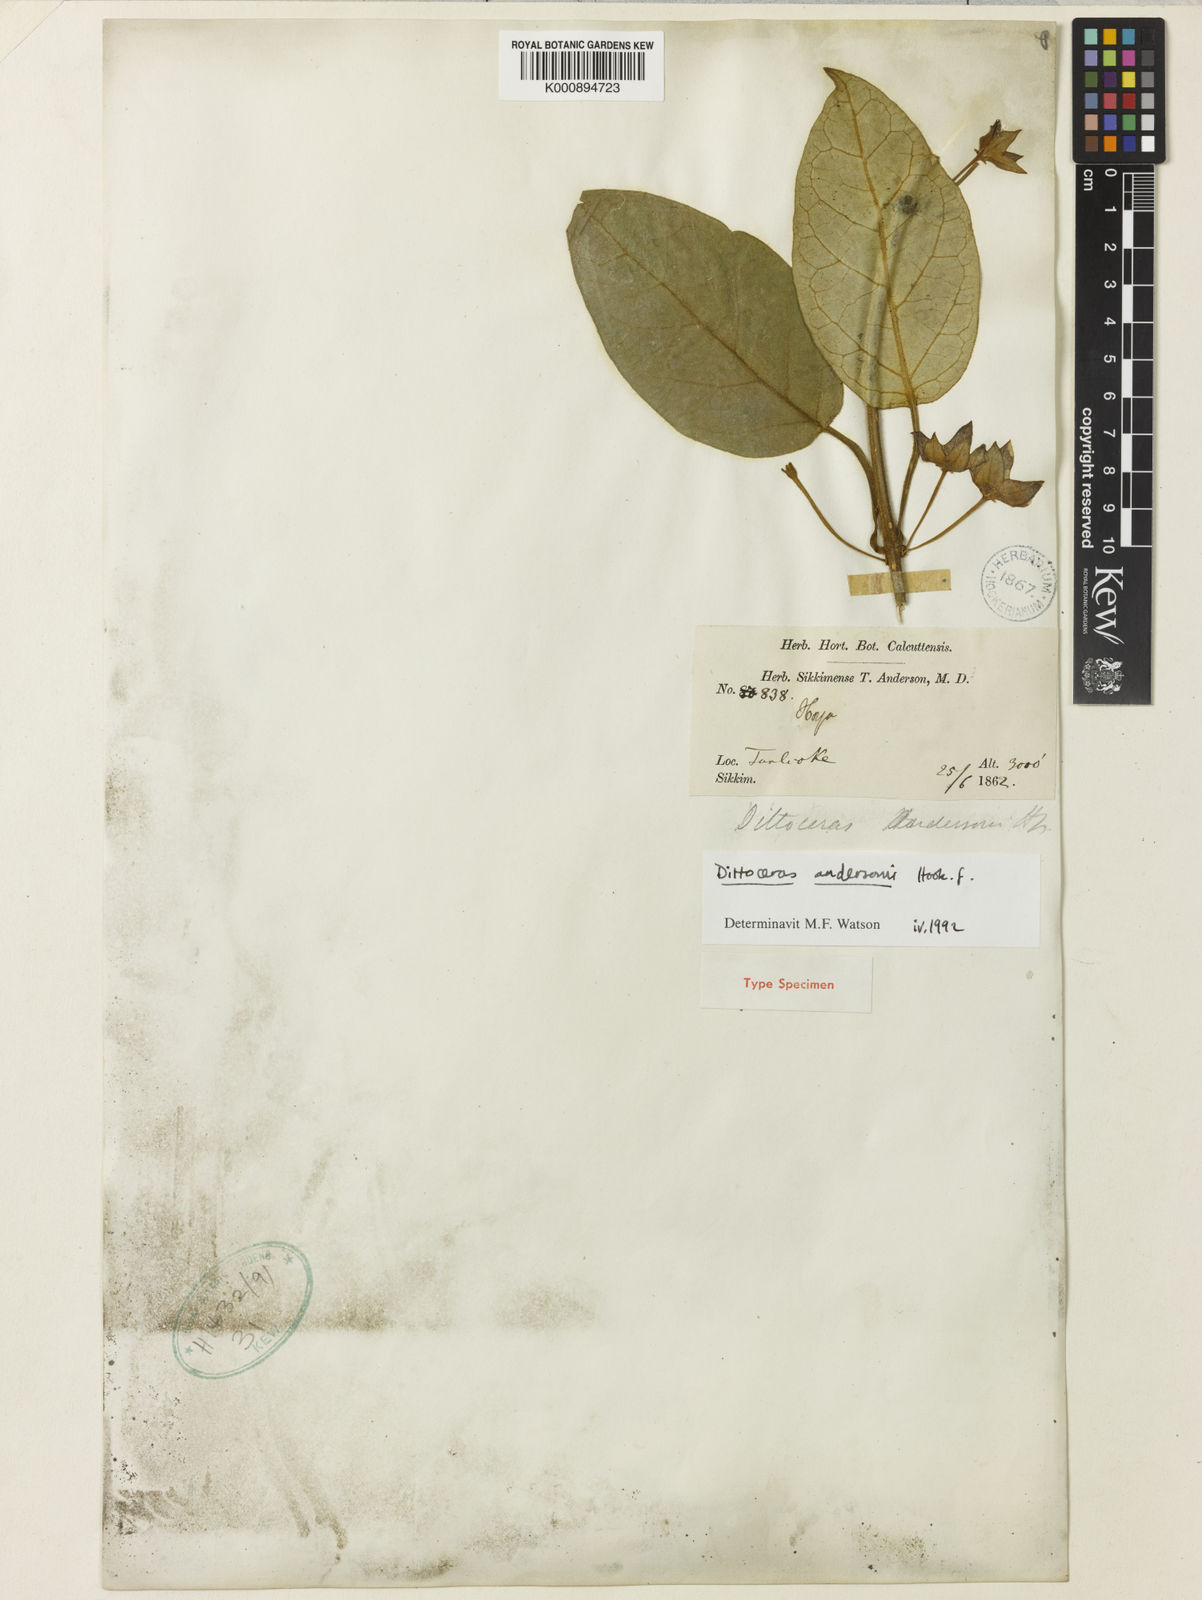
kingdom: Plantae
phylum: Tracheophyta
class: Magnoliopsida
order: Gentianales
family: Apocynaceae
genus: Heterostemma
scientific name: Heterostemma andersonii
